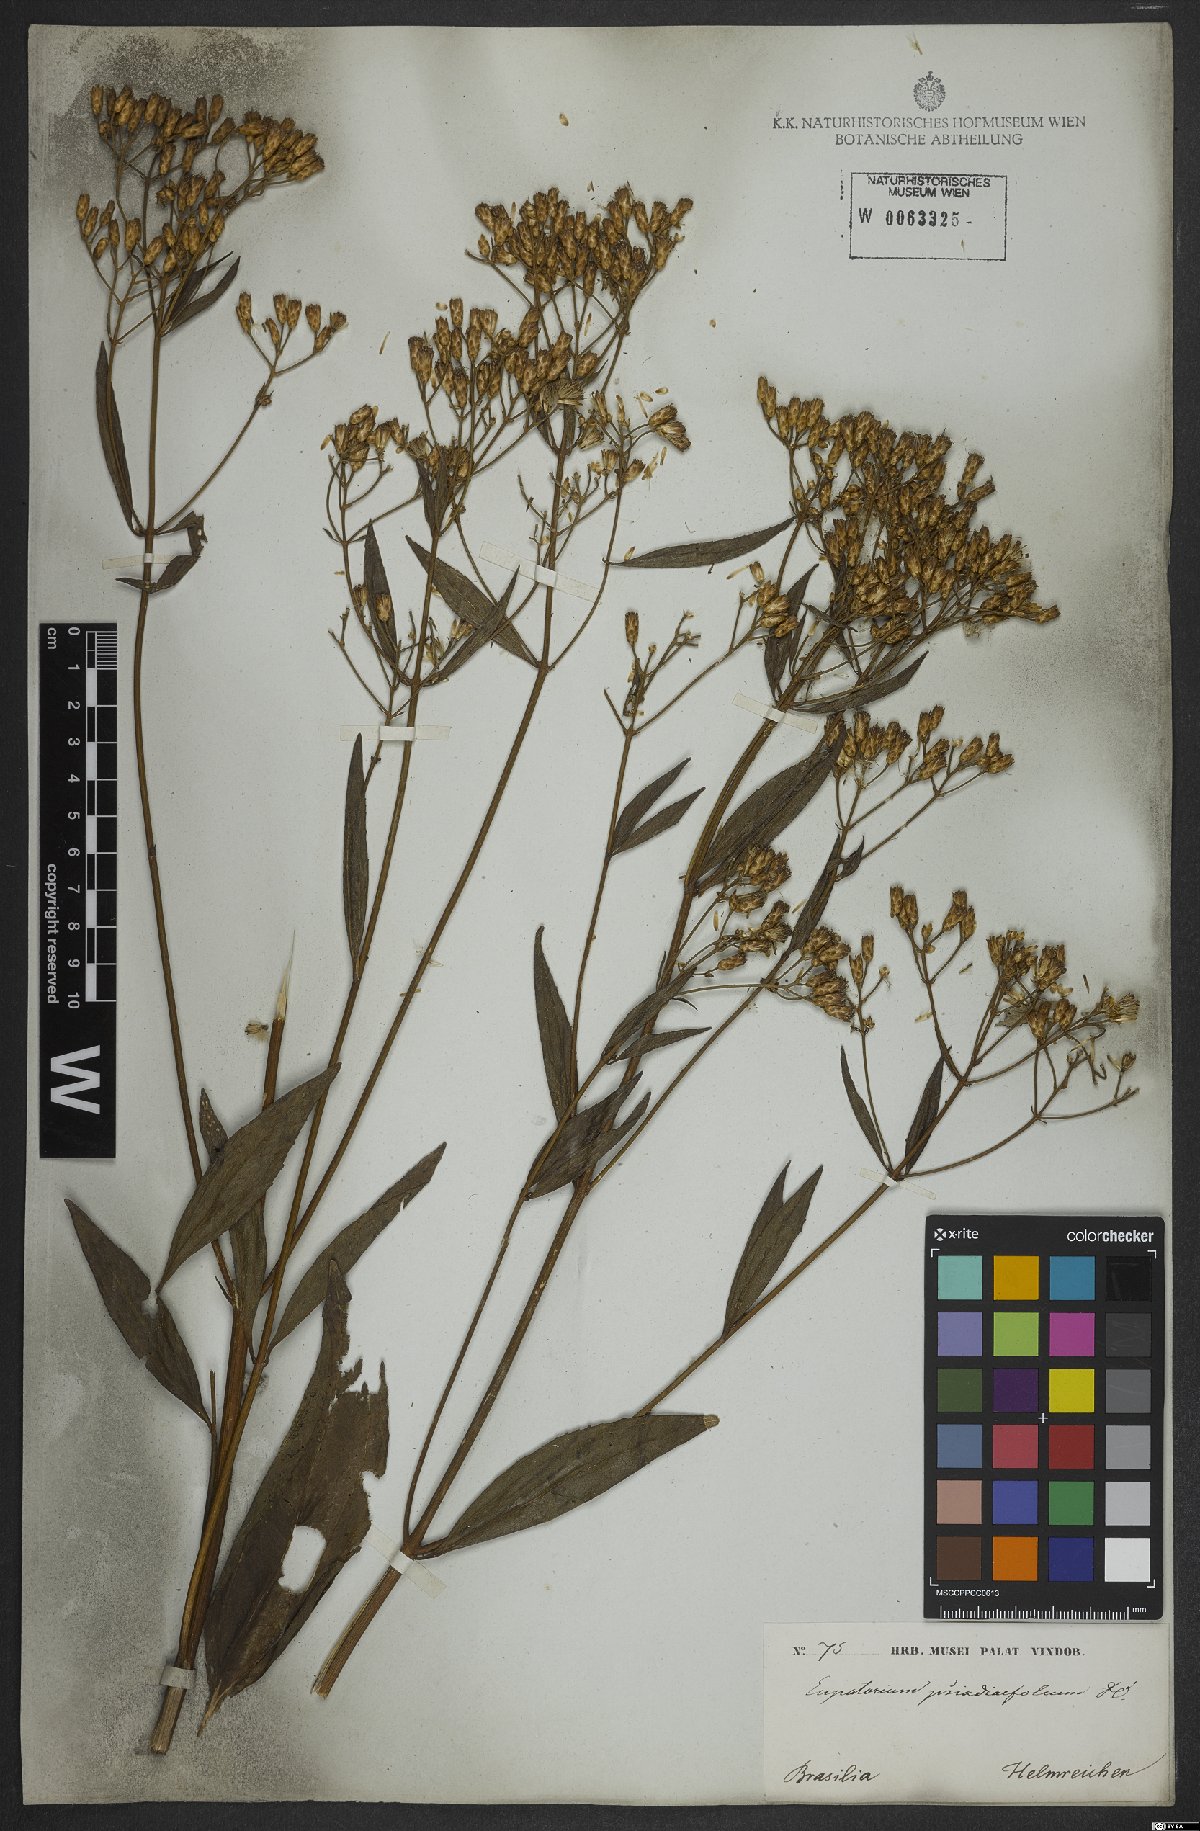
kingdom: Plantae
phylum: Tracheophyta
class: Magnoliopsida
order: Asterales
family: Asteraceae
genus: Eupatorium
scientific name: Eupatorium laevigatum
